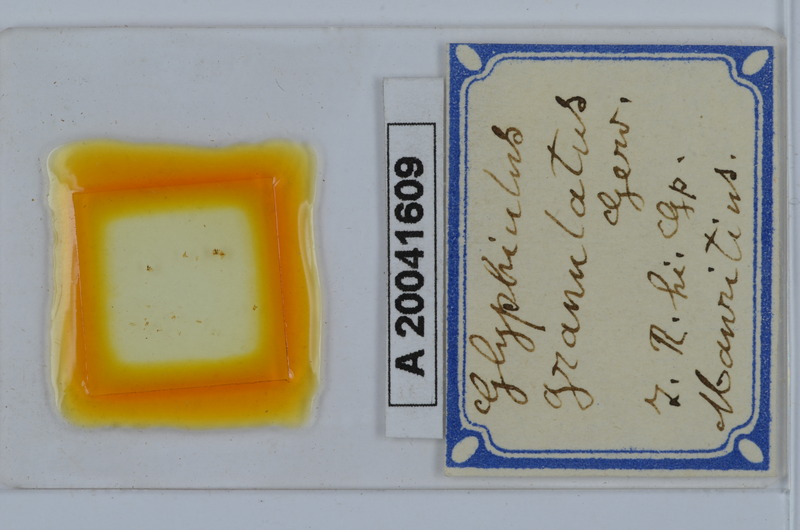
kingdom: Animalia
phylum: Arthropoda
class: Diplopoda
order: Spirostreptida
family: Cambalopsidae
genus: Glyphiulus
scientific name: Glyphiulus granulatus
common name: Millipede
